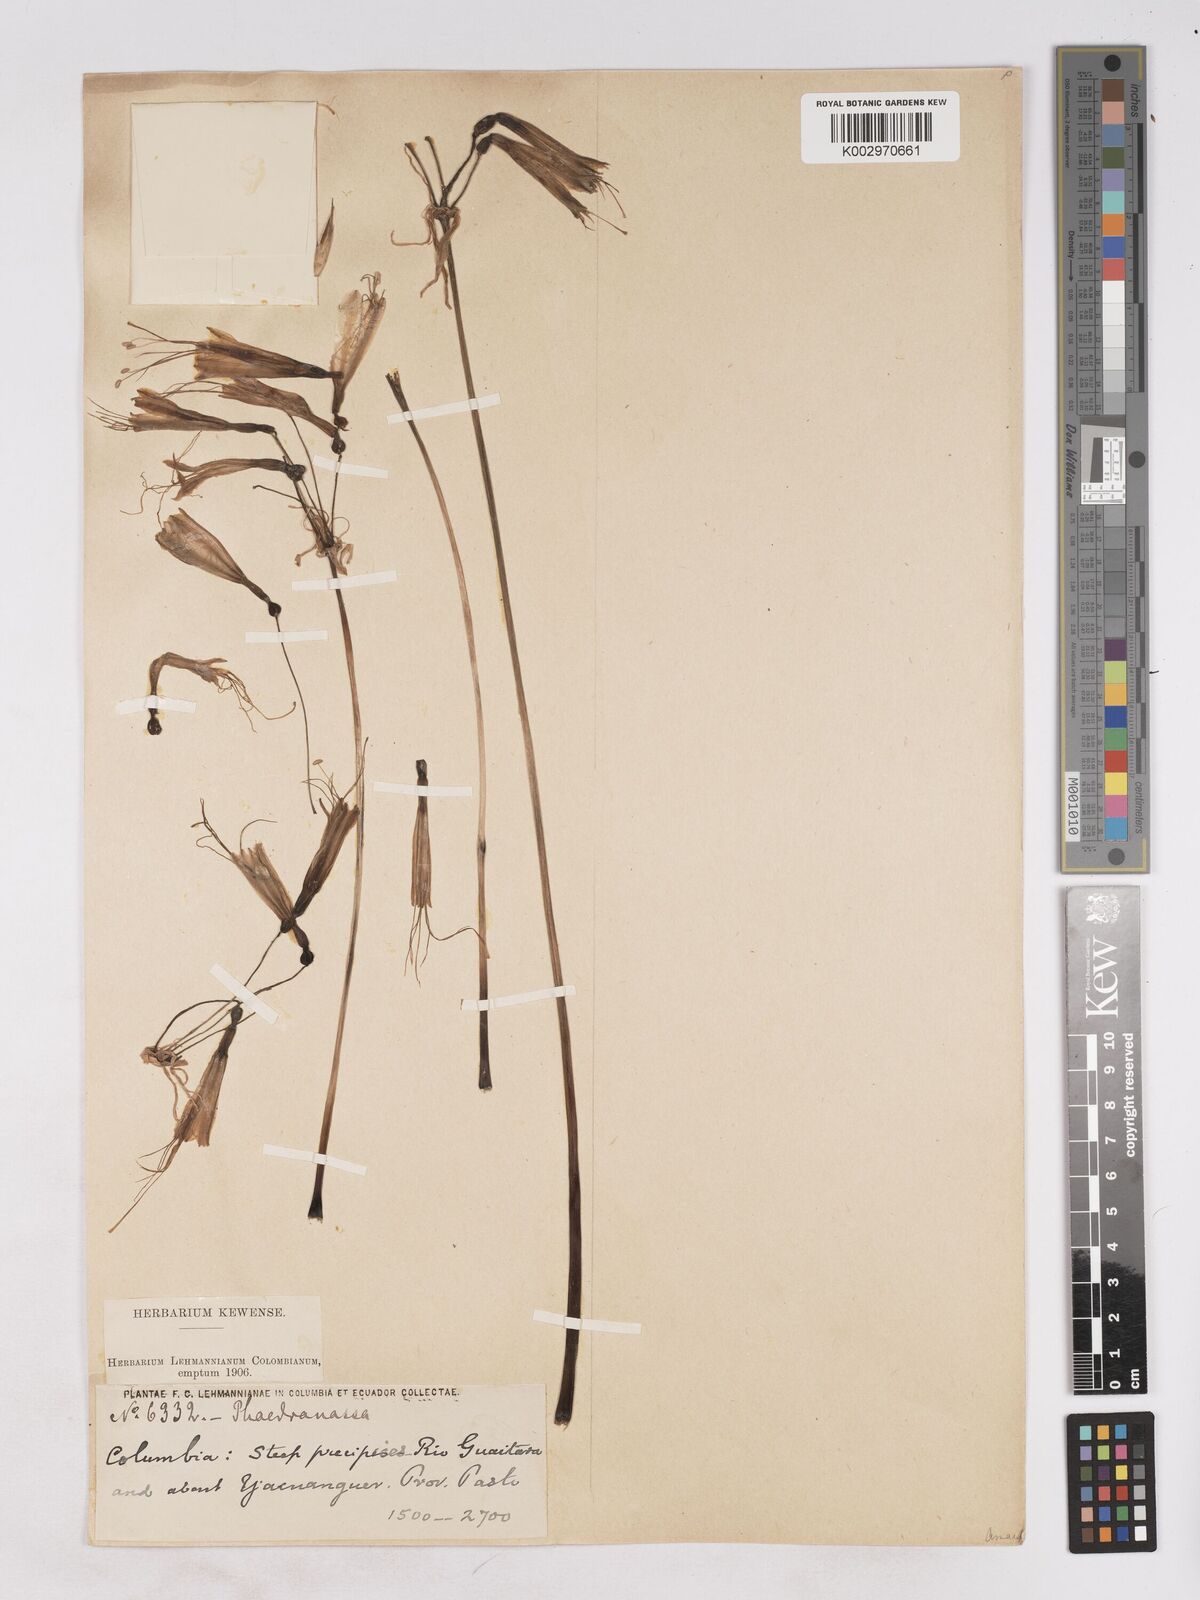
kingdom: Plantae
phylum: Tracheophyta
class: Liliopsida
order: Asparagales
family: Amaryllidaceae
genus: Phaedranassa
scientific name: Phaedranassa lehmannii
